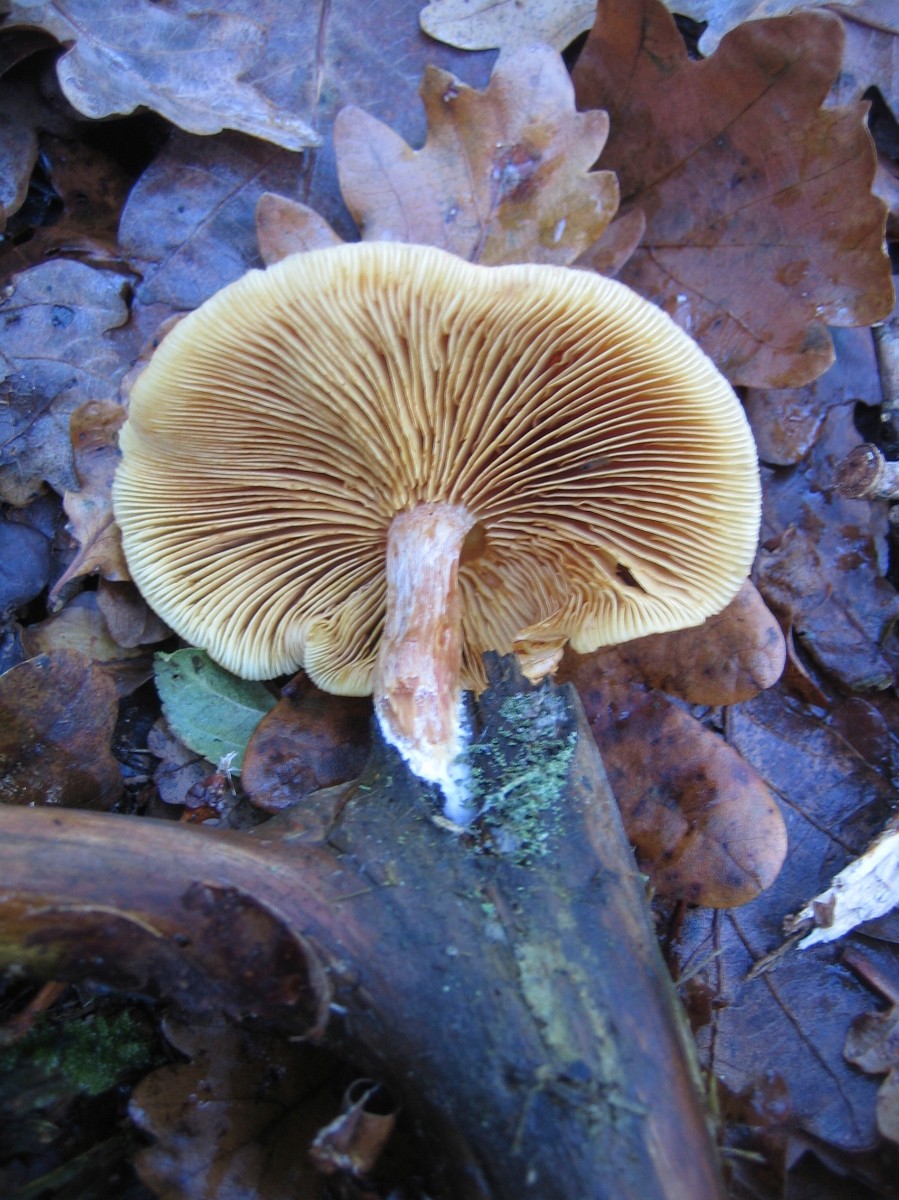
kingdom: Fungi
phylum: Basidiomycota
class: Agaricomycetes
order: Agaricales
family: Hymenogastraceae
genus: Gymnopilus
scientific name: Gymnopilus penetrans
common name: plettet flammehat
